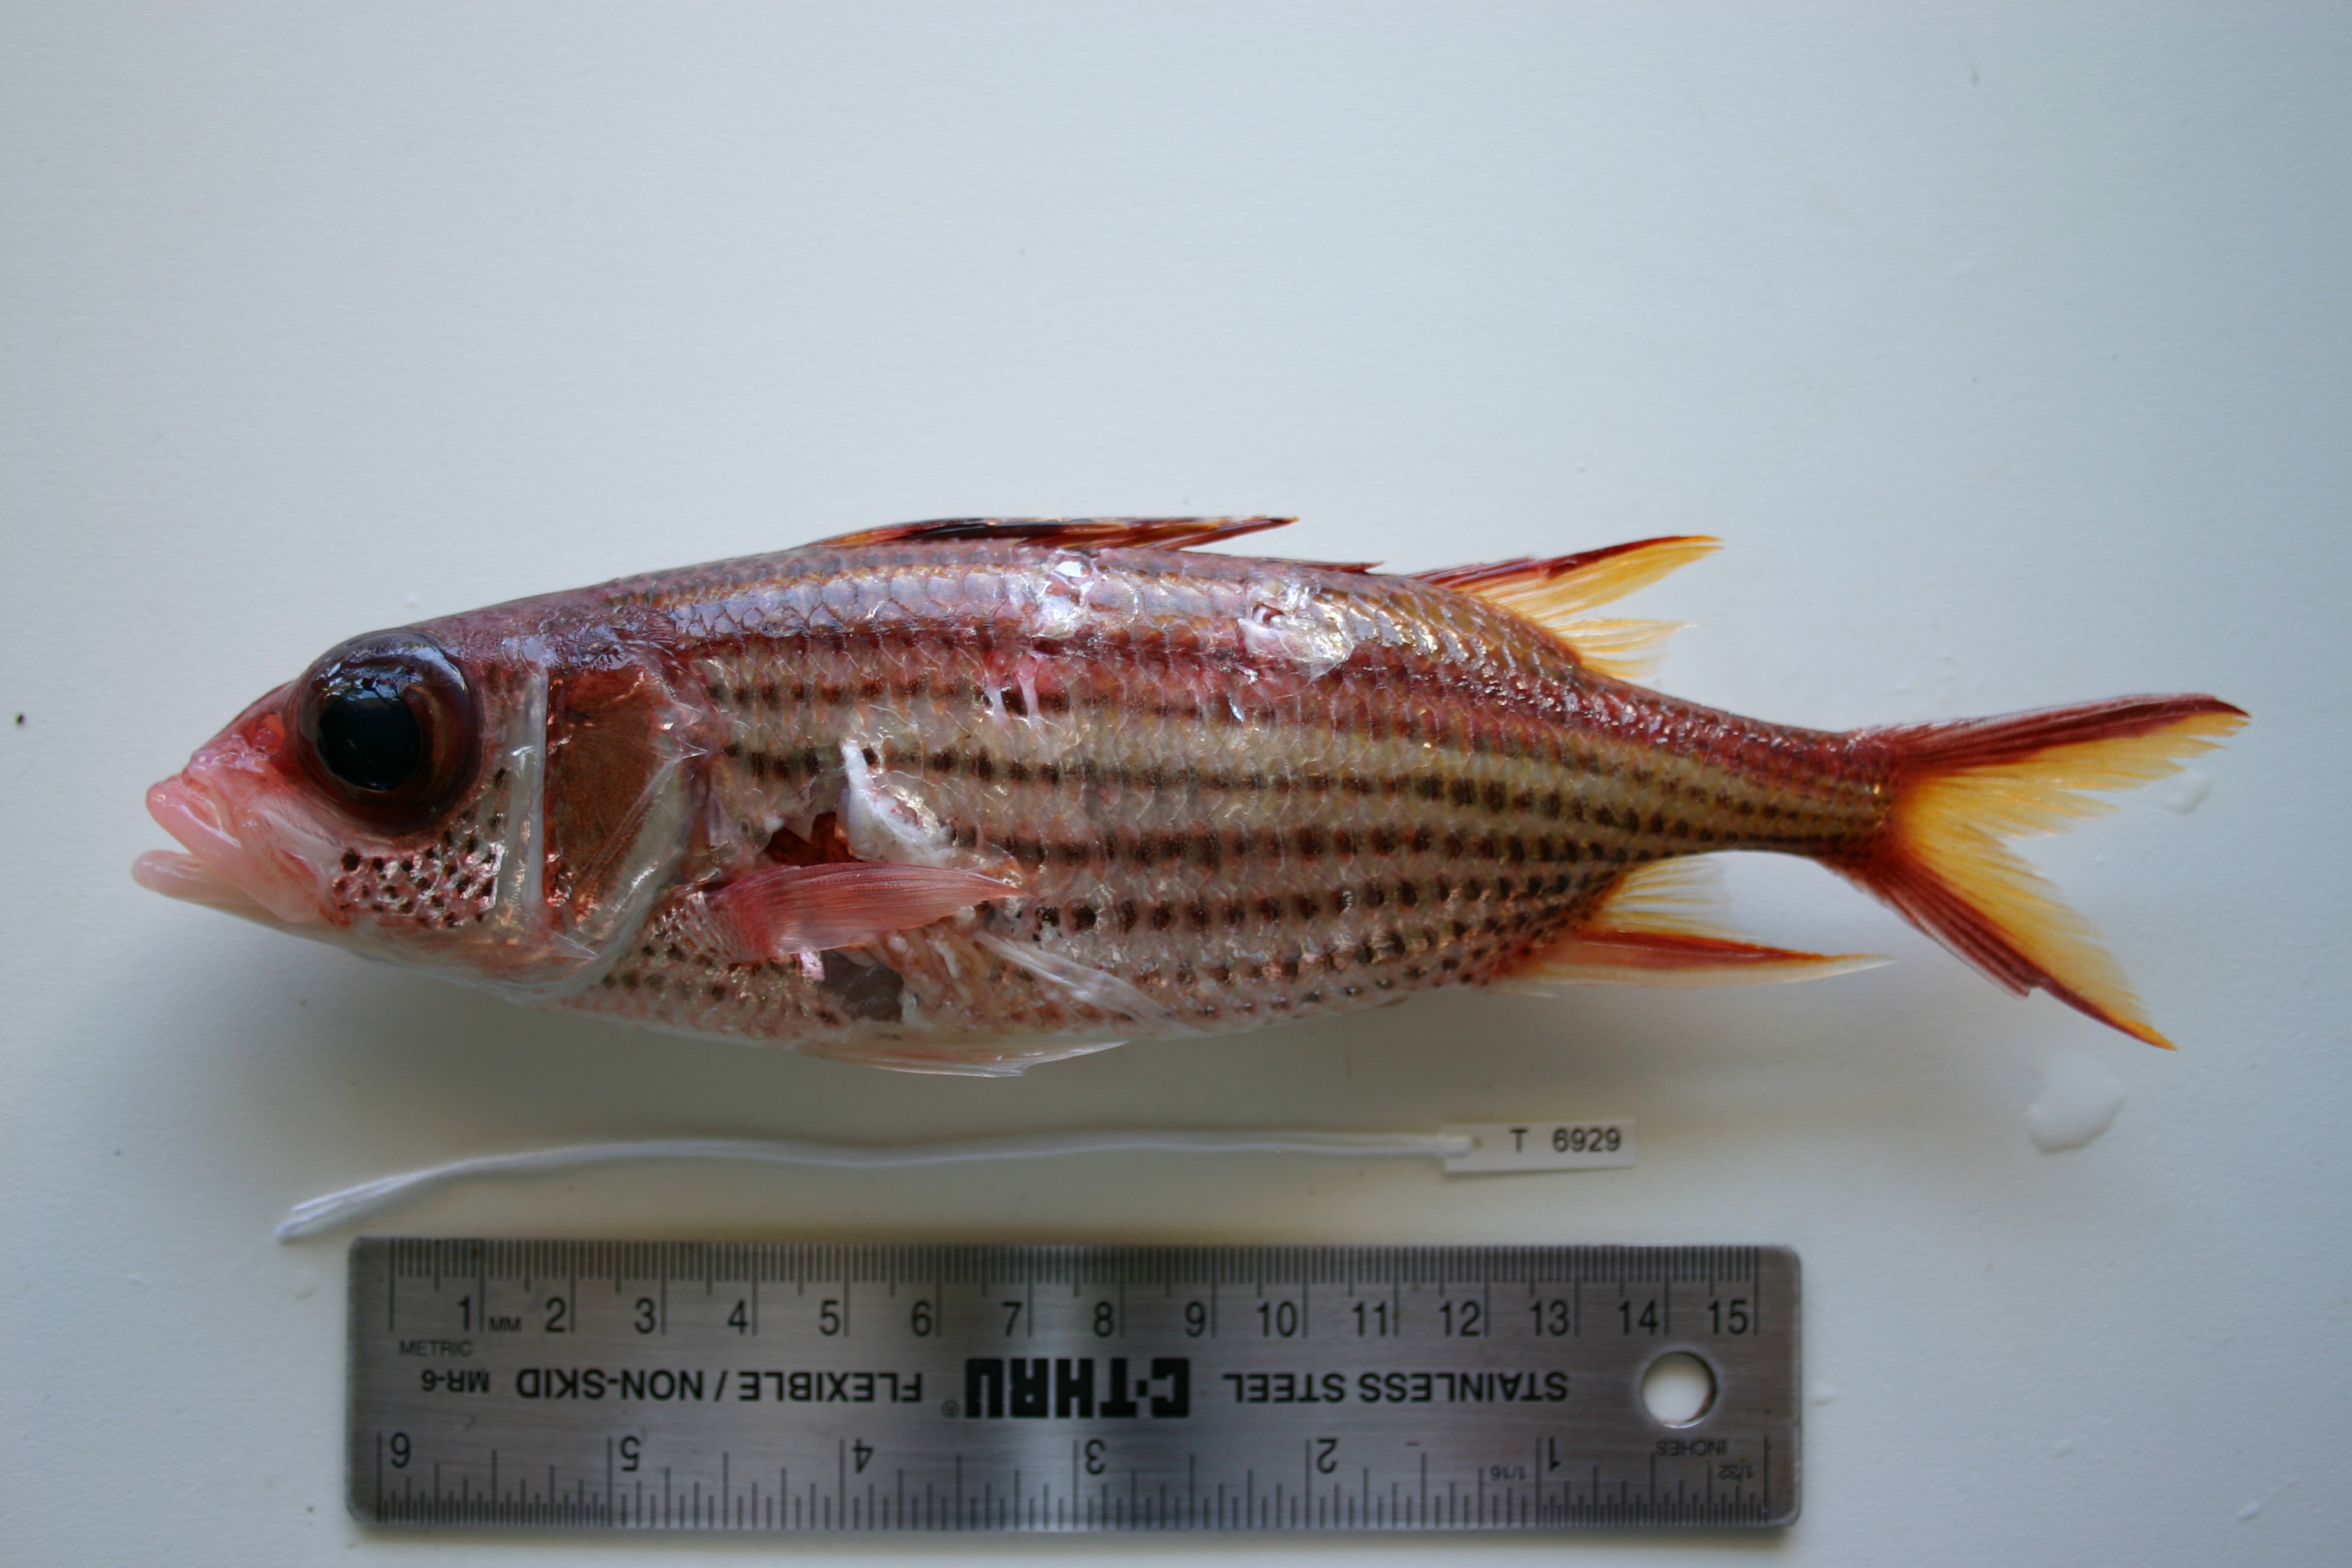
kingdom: Animalia
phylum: Chordata
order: Beryciformes
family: Holocentridae
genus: Neoniphon
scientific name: Neoniphon sammara
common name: Sammara squirrelfish
